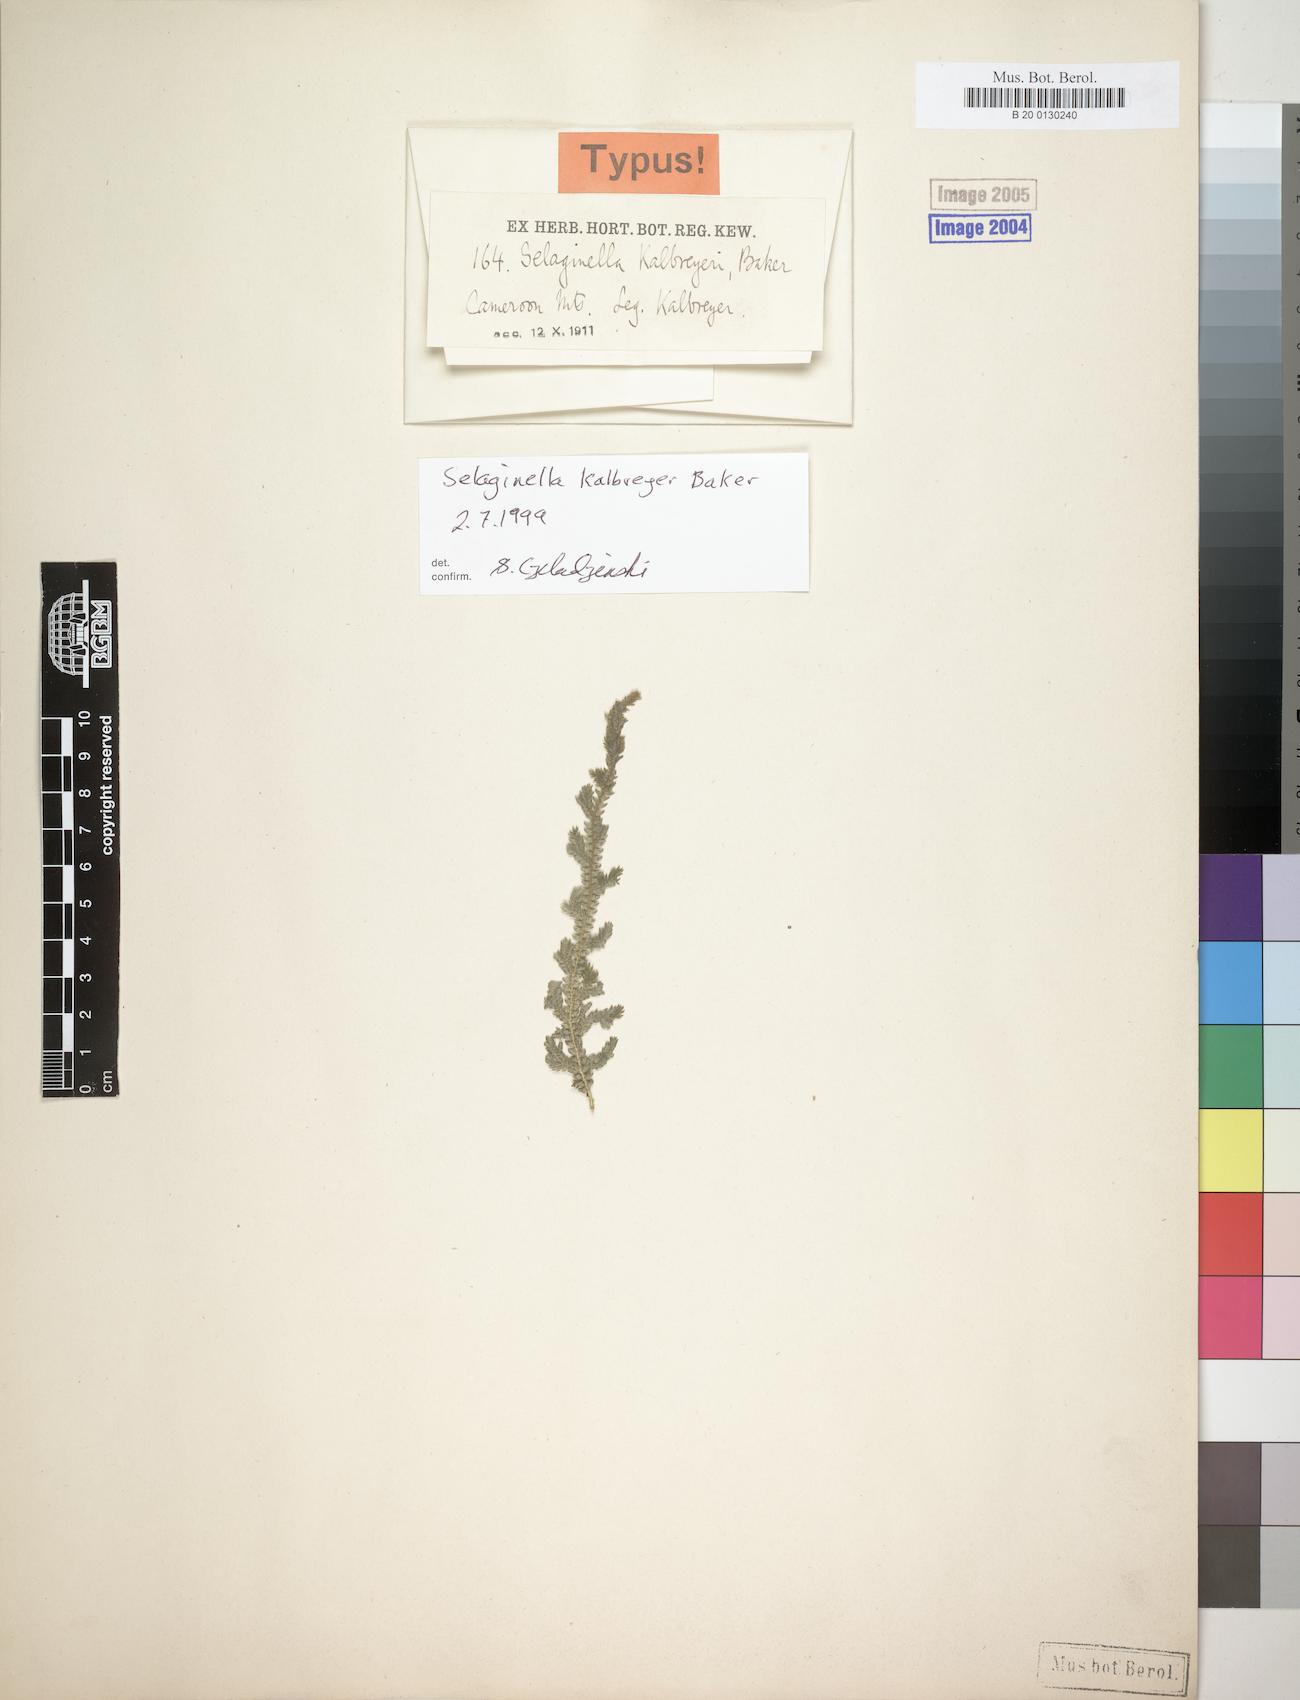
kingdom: Plantae
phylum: Tracheophyta
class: Lycopodiopsida
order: Selaginellales
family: Selaginellaceae
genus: Selaginella
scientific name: Selaginella kalbreyeri
